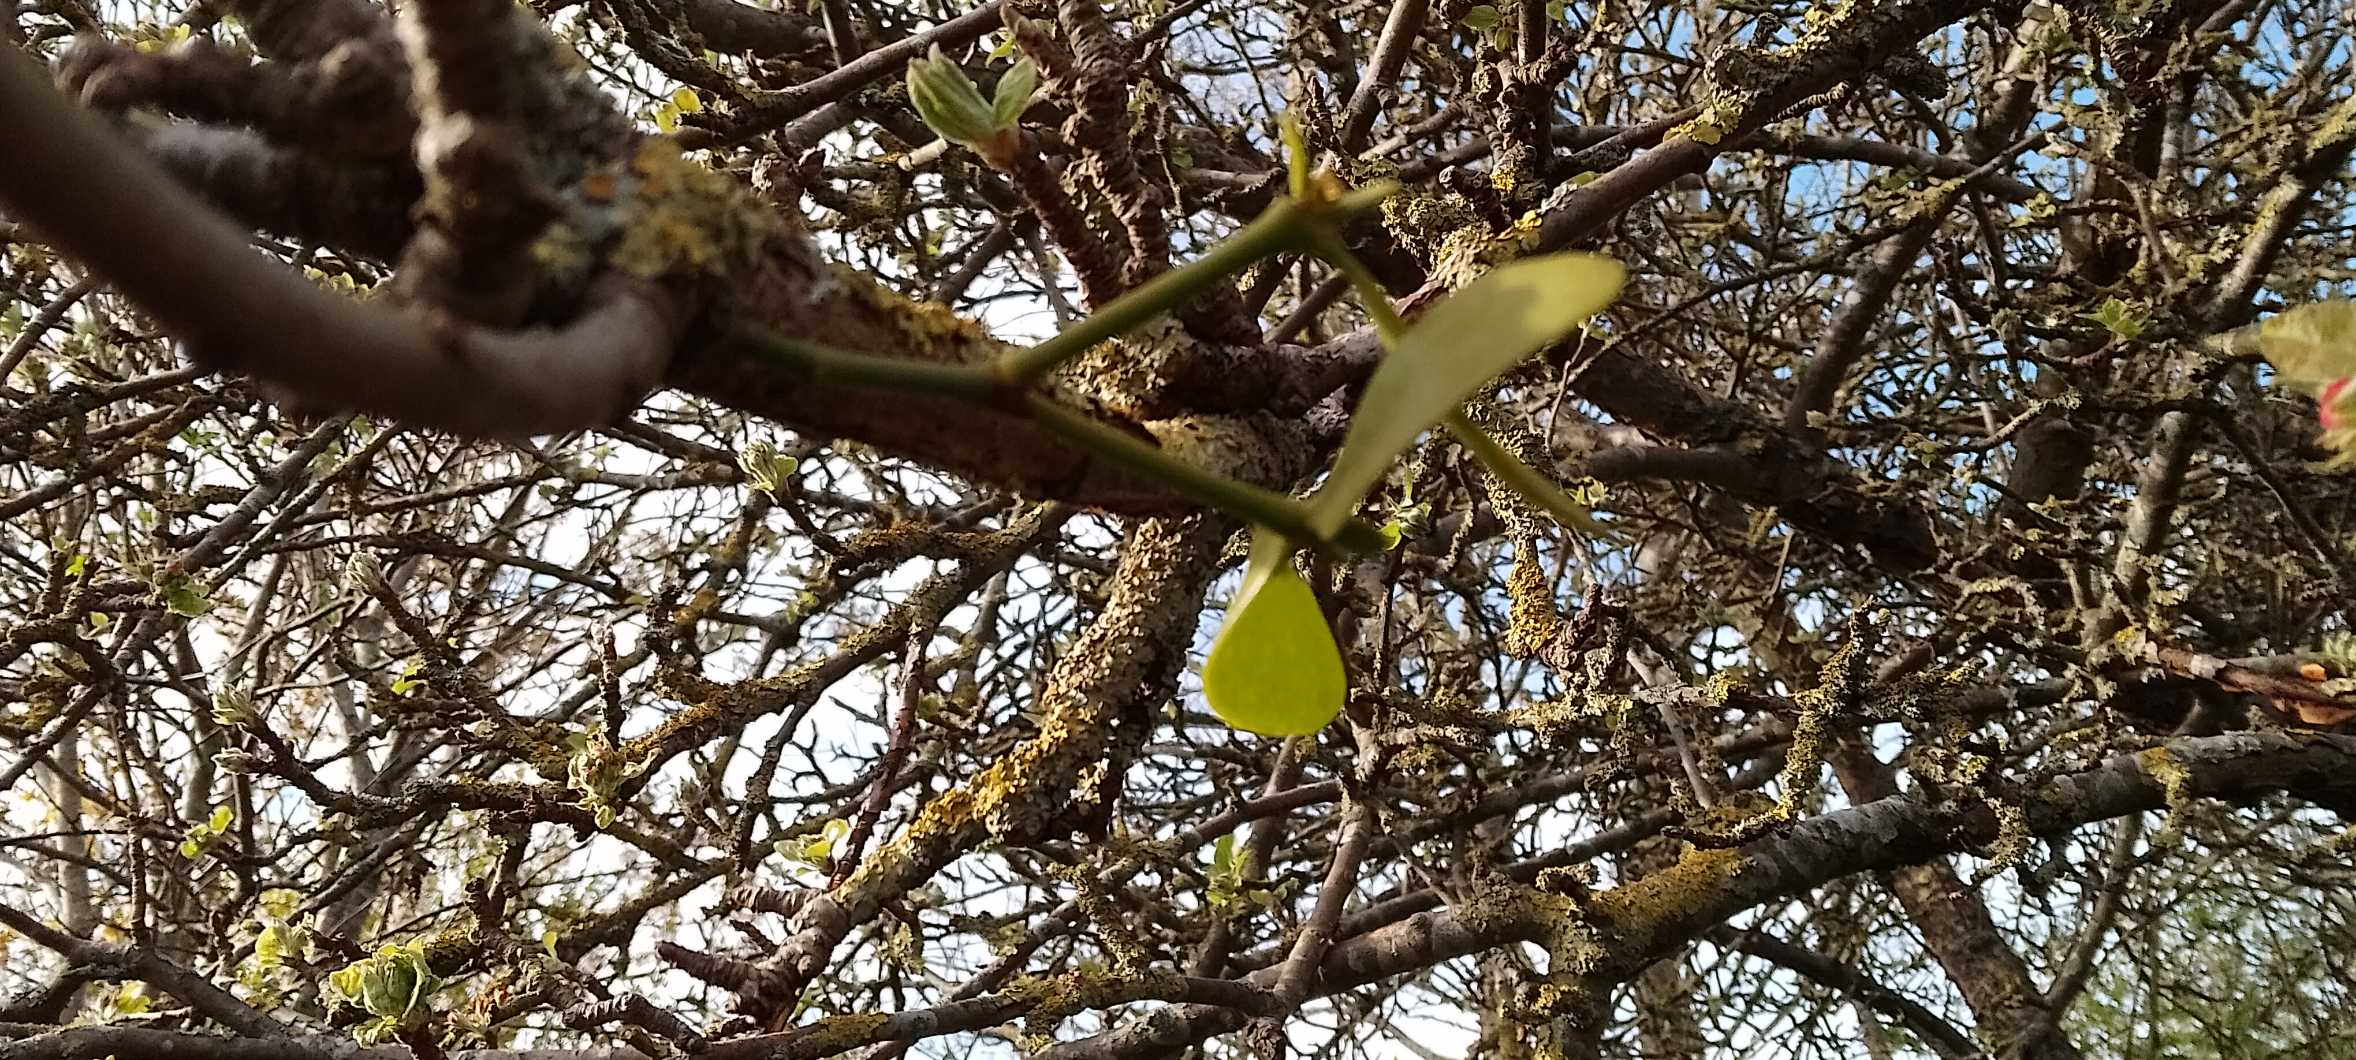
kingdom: Plantae
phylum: Tracheophyta
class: Magnoliopsida
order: Santalales
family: Viscaceae
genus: Viscum
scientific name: Viscum album
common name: Mistelten
